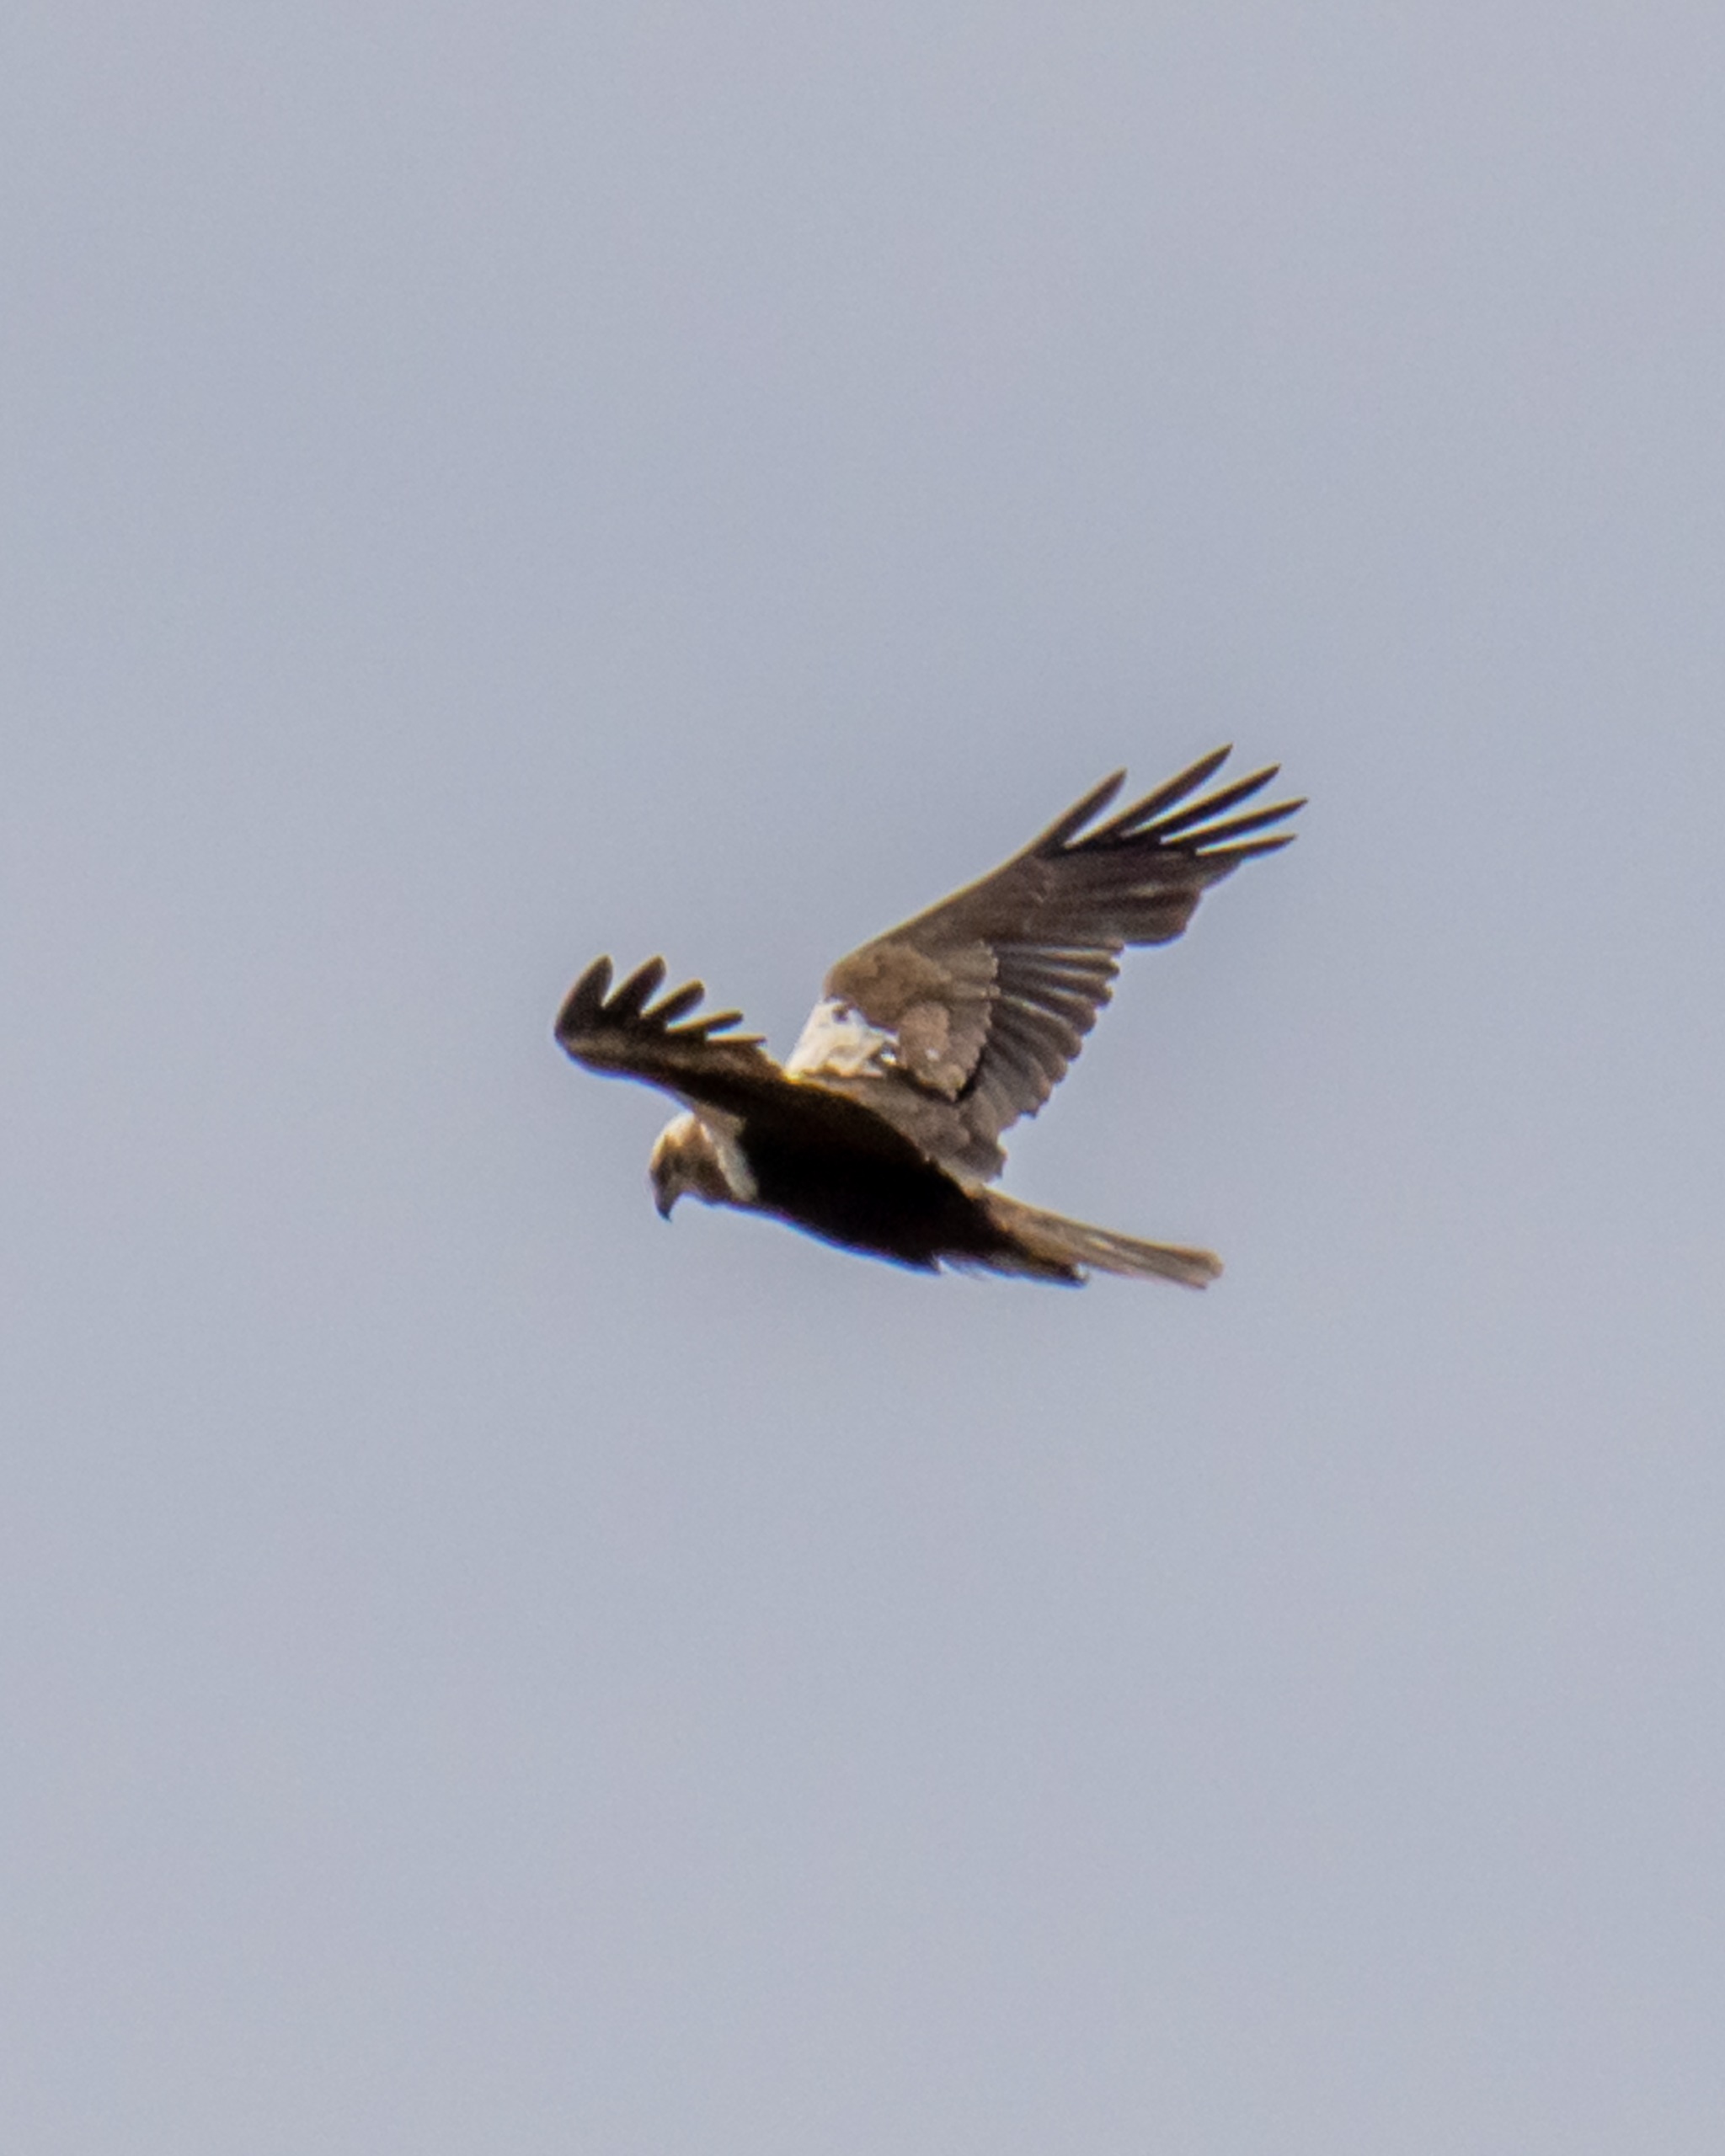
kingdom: Animalia
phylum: Chordata
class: Aves
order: Accipitriformes
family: Accipitridae
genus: Circus
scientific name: Circus aeruginosus
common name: Rørhøg
